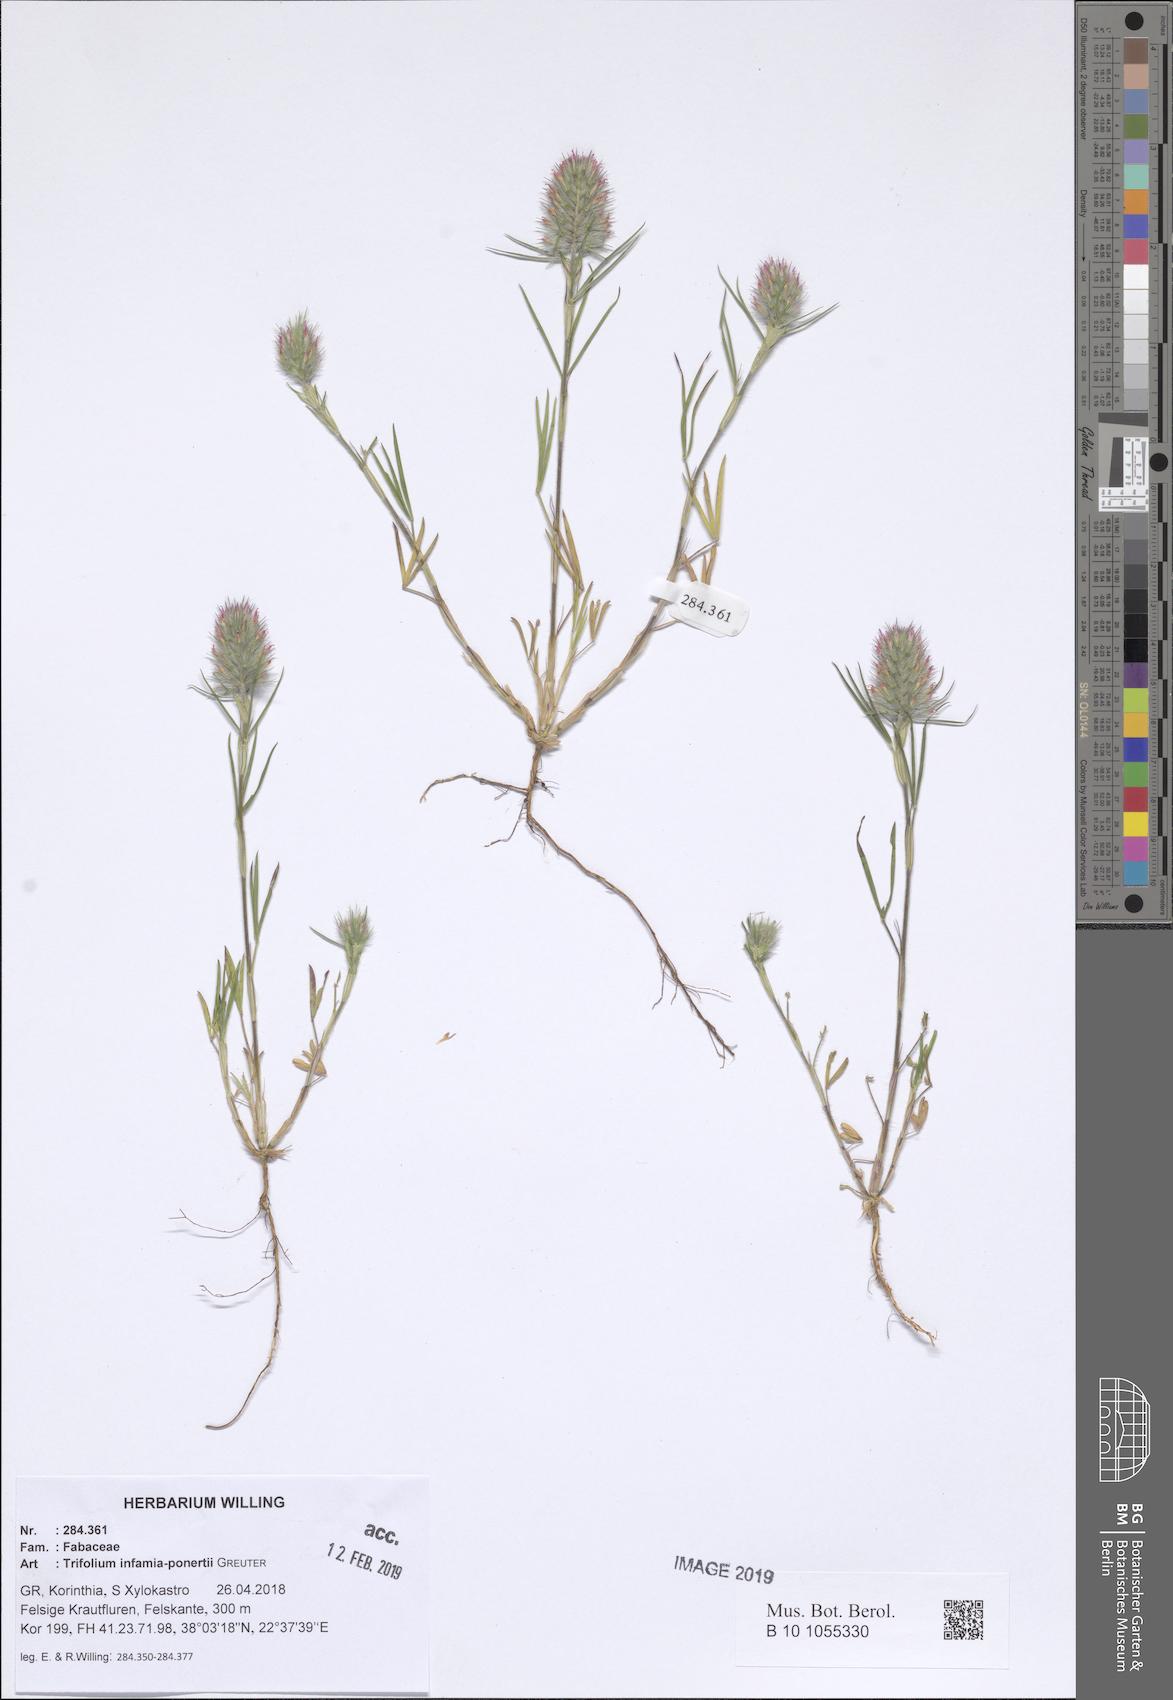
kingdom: Plantae
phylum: Tracheophyta
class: Magnoliopsida
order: Fabales
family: Fabaceae
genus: Trifolium
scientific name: Trifolium infamia-ponertii
